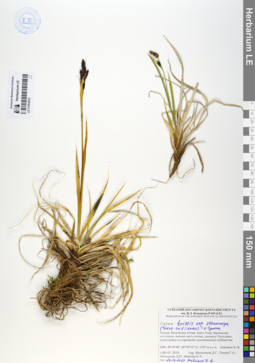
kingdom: Plantae
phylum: Tracheophyta
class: Liliopsida
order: Poales
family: Cyperaceae
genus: Carex
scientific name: Carex stenocarpa
